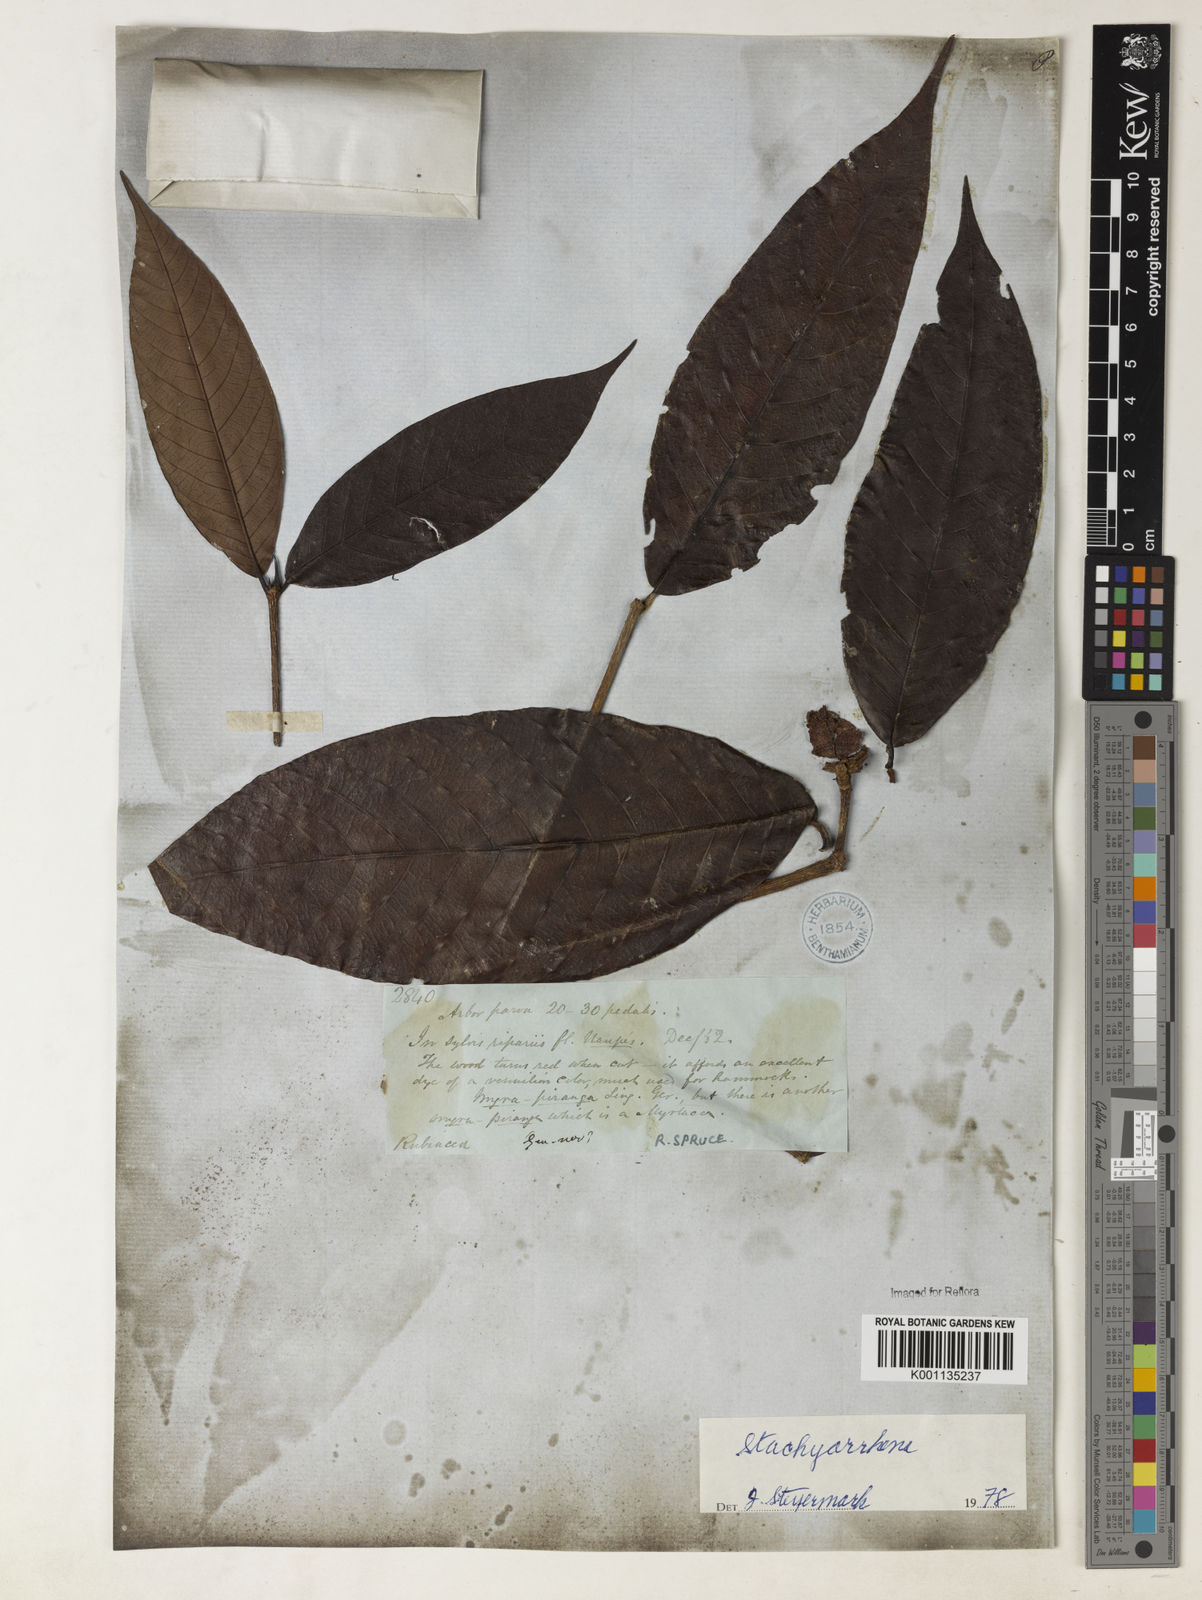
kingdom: Plantae
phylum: Tracheophyta
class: Magnoliopsida
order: Gentianales
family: Rubiaceae
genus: Stachyarrhena
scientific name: Stachyarrhena
